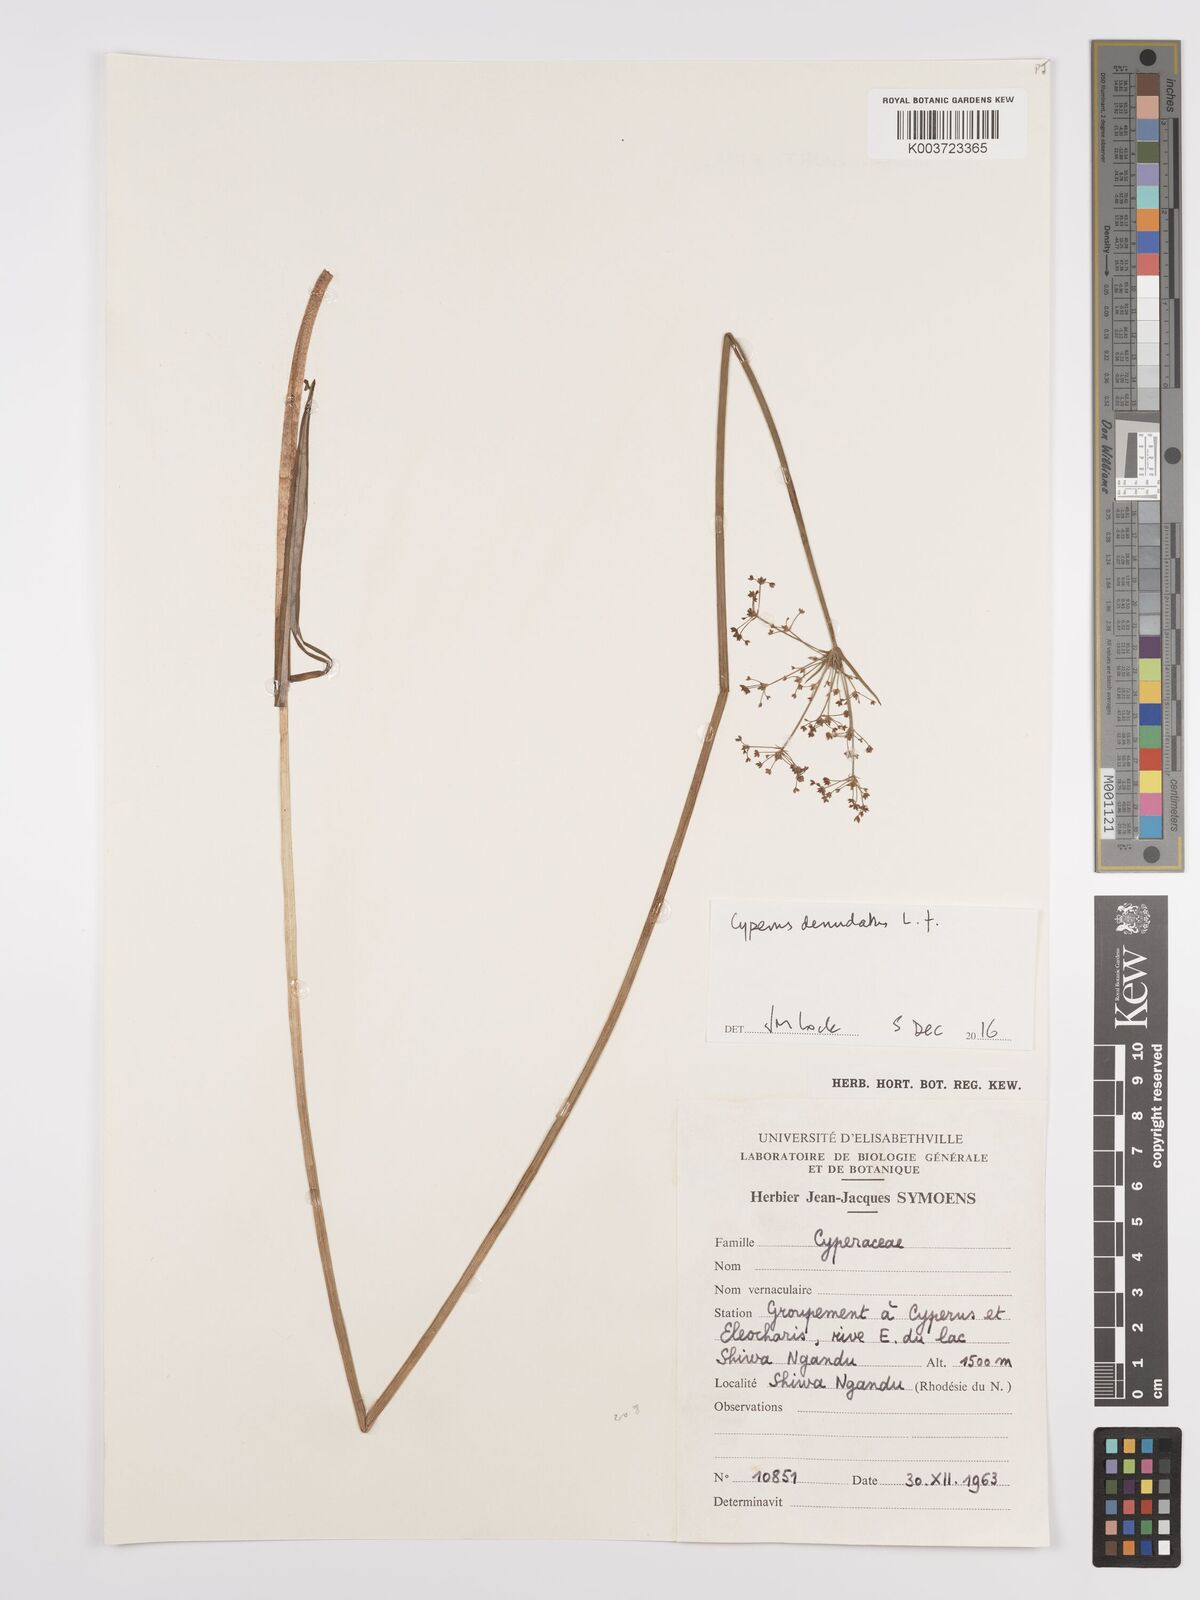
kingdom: Plantae
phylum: Tracheophyta
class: Liliopsida
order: Poales
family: Cyperaceae
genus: Cyperus
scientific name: Cyperus denudatus
